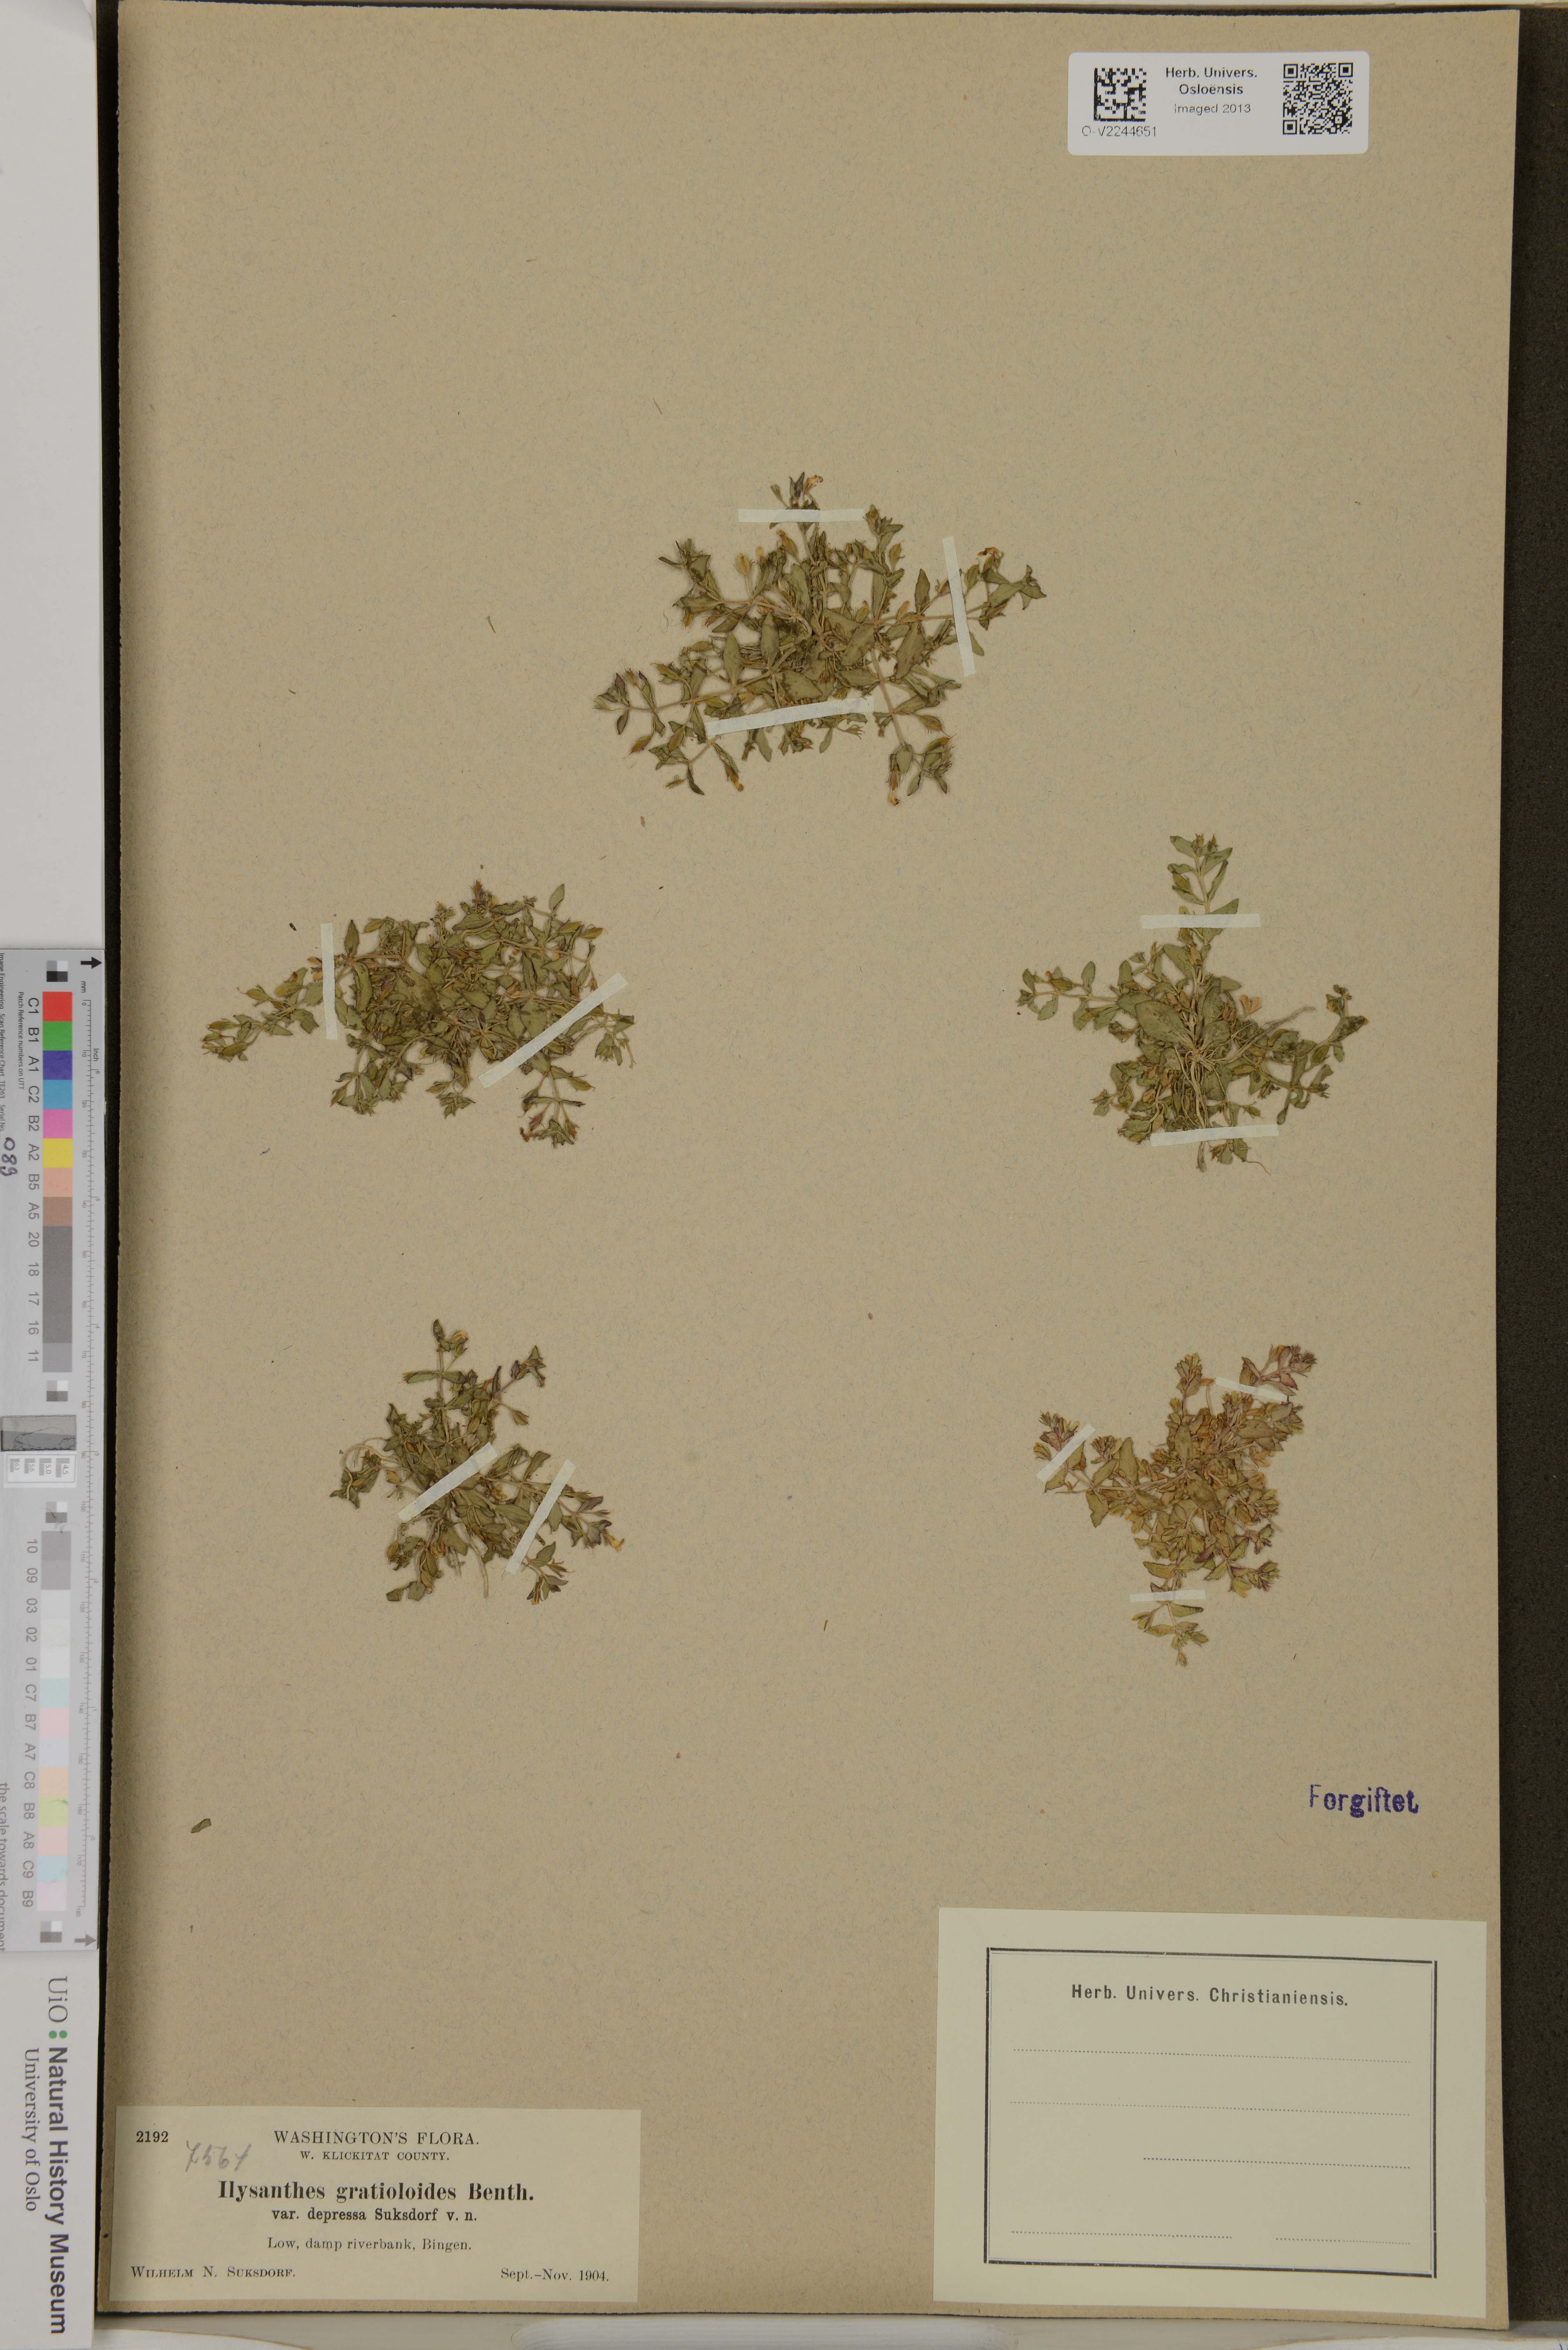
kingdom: Plantae
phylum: Tracheophyta
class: Magnoliopsida
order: Lamiales
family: Linderniaceae
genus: Lindernia
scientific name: Lindernia gratioloides
